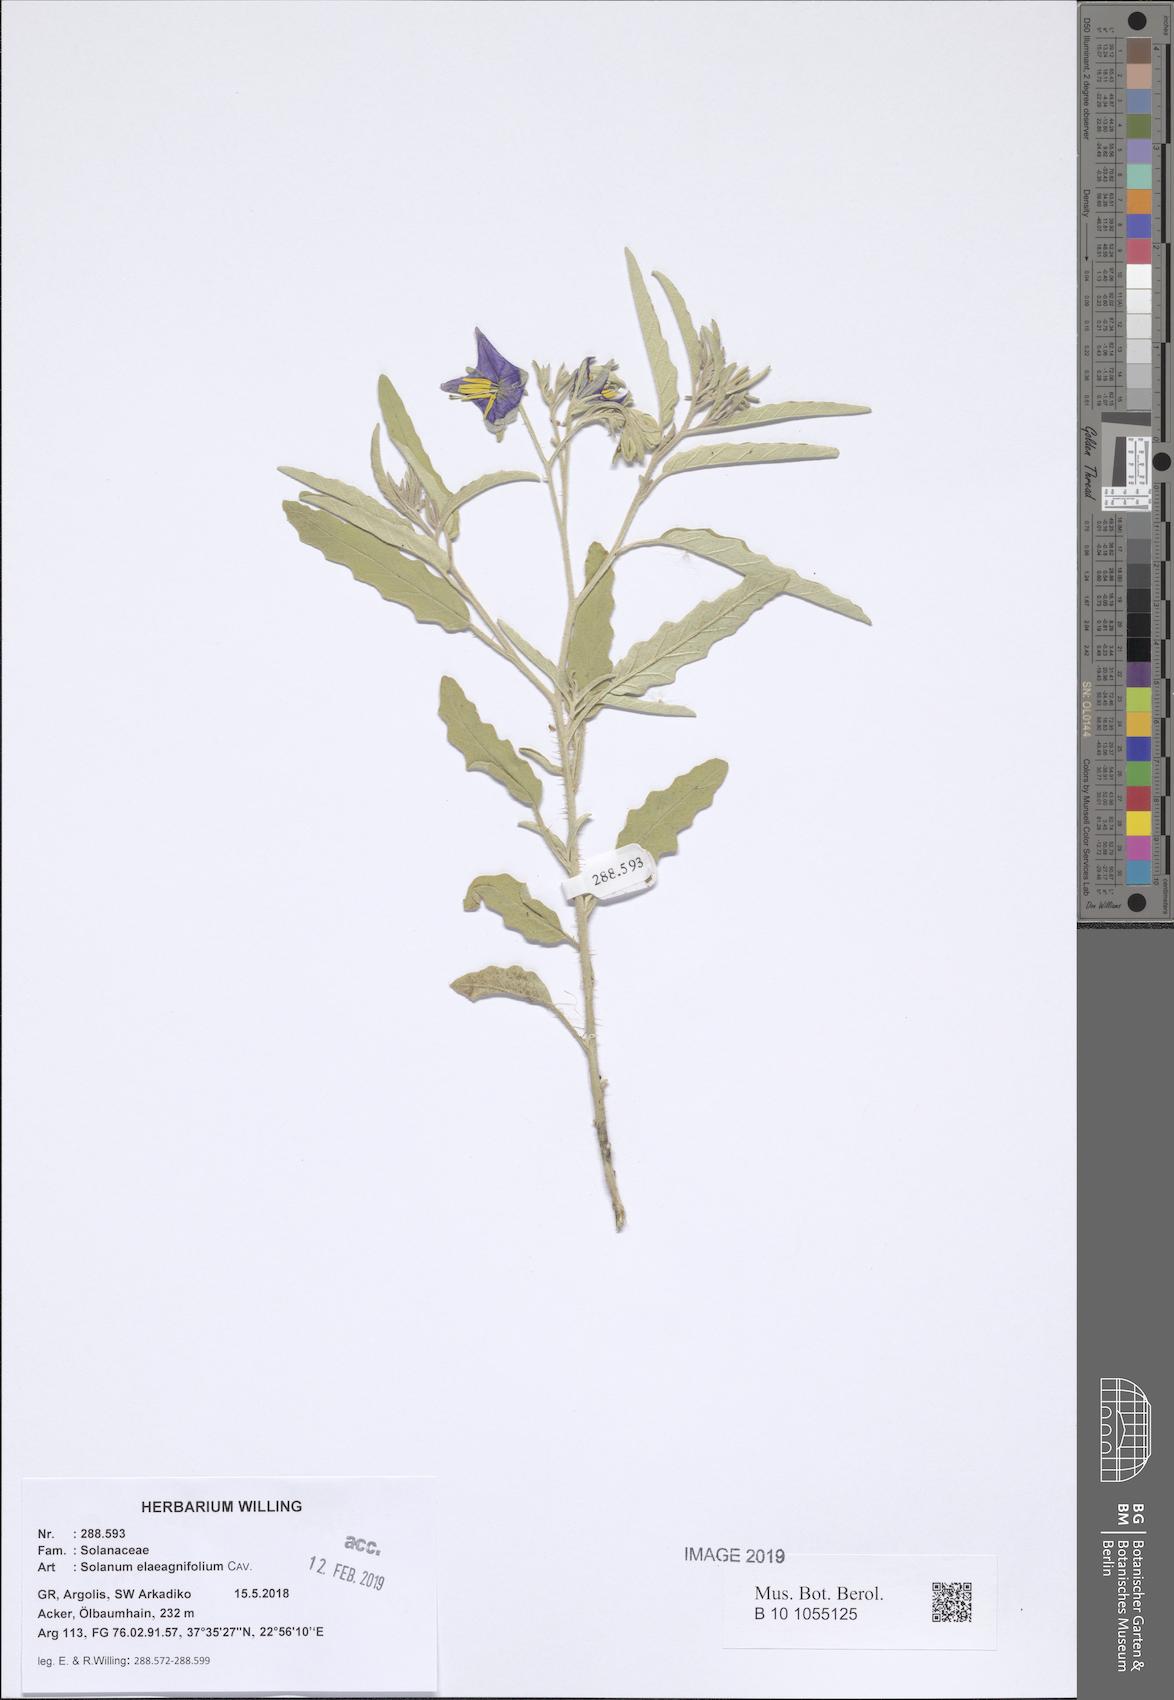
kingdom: Plantae
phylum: Tracheophyta
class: Magnoliopsida
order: Solanales
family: Solanaceae
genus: Solanum
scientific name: Solanum elaeagnifolium
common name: Silverleaf nightshade
